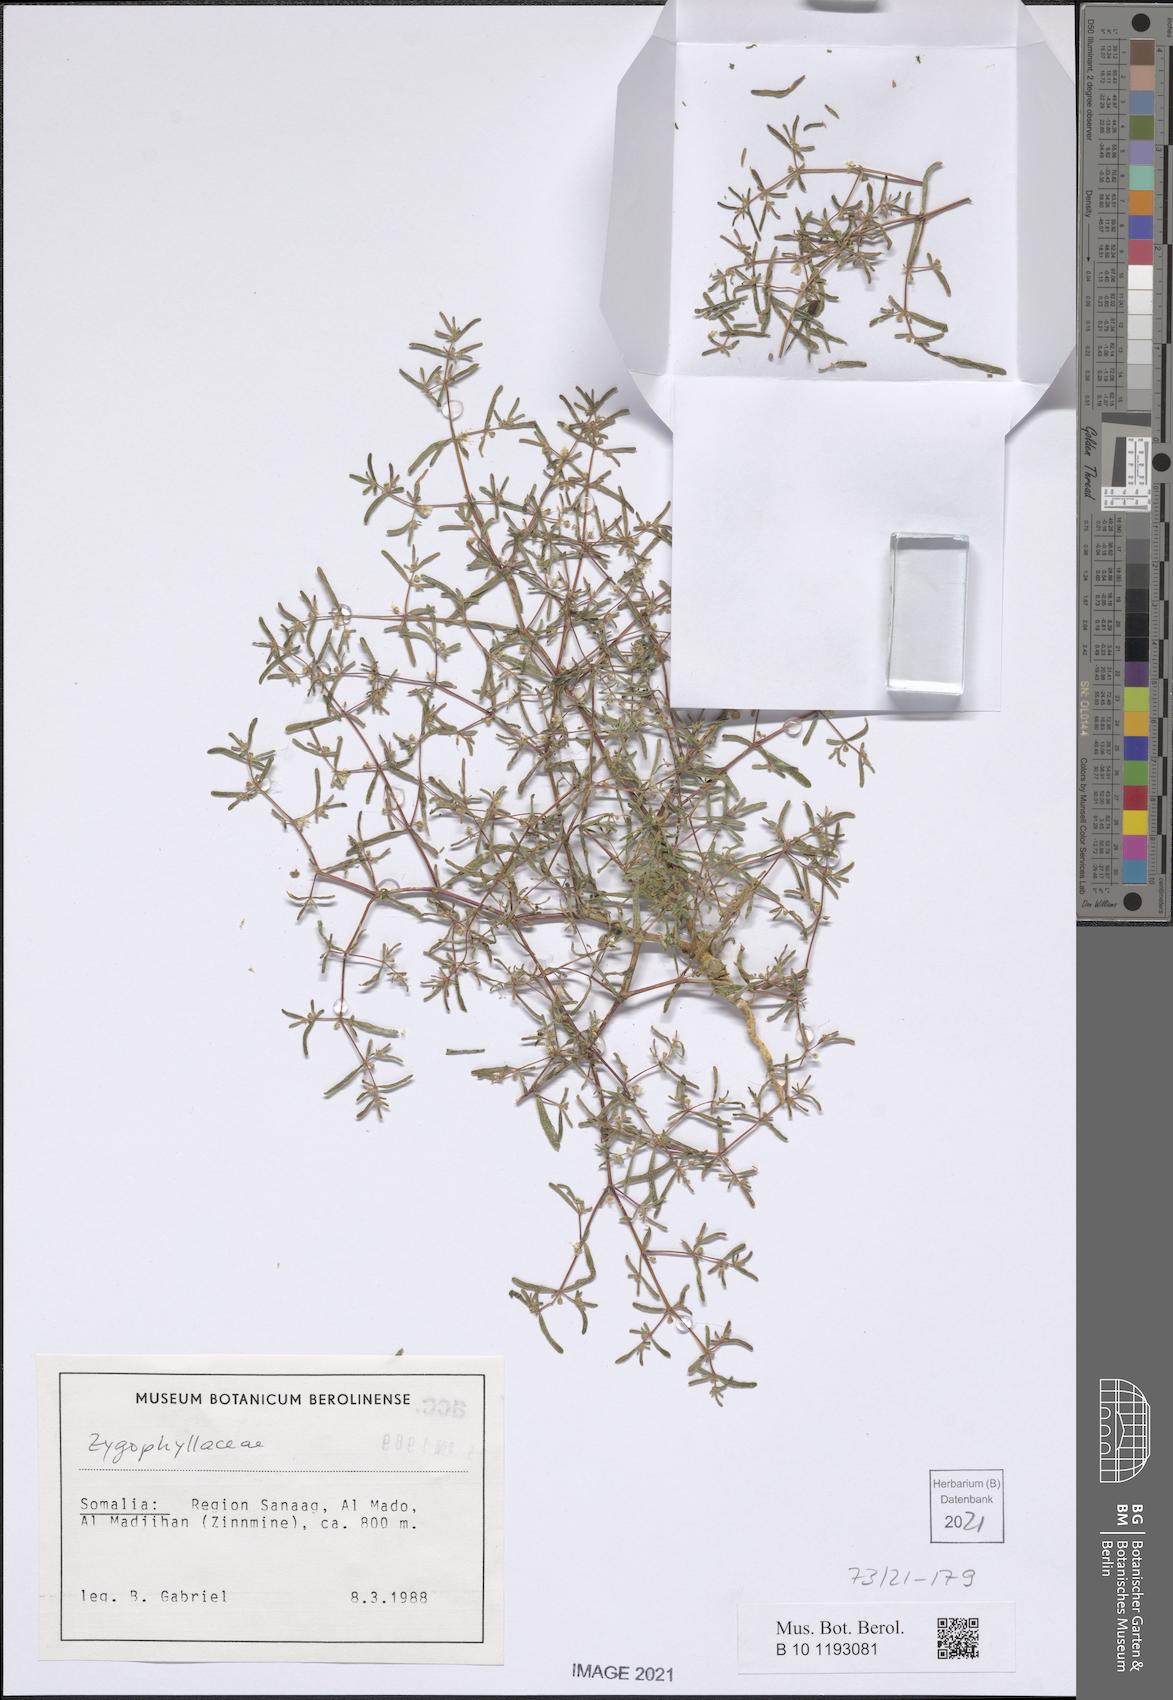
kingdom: Plantae
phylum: Tracheophyta
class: Magnoliopsida
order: Zygophyllales
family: Zygophyllaceae
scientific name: Zygophyllaceae
